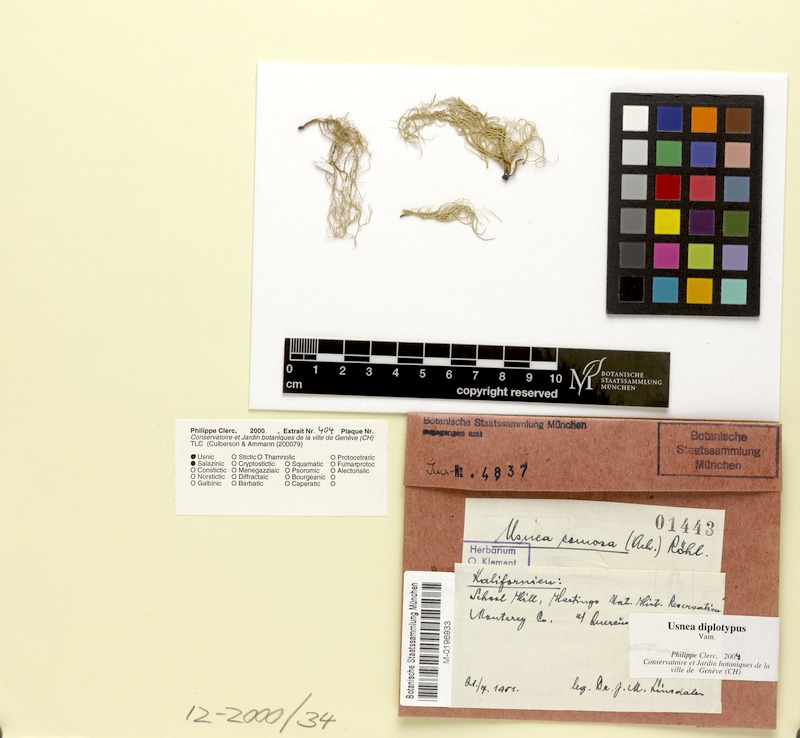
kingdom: Fungi
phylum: Ascomycota
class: Lecanoromycetes
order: Lecanorales
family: Parmeliaceae
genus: Usnea
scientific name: Usnea diplotypus
